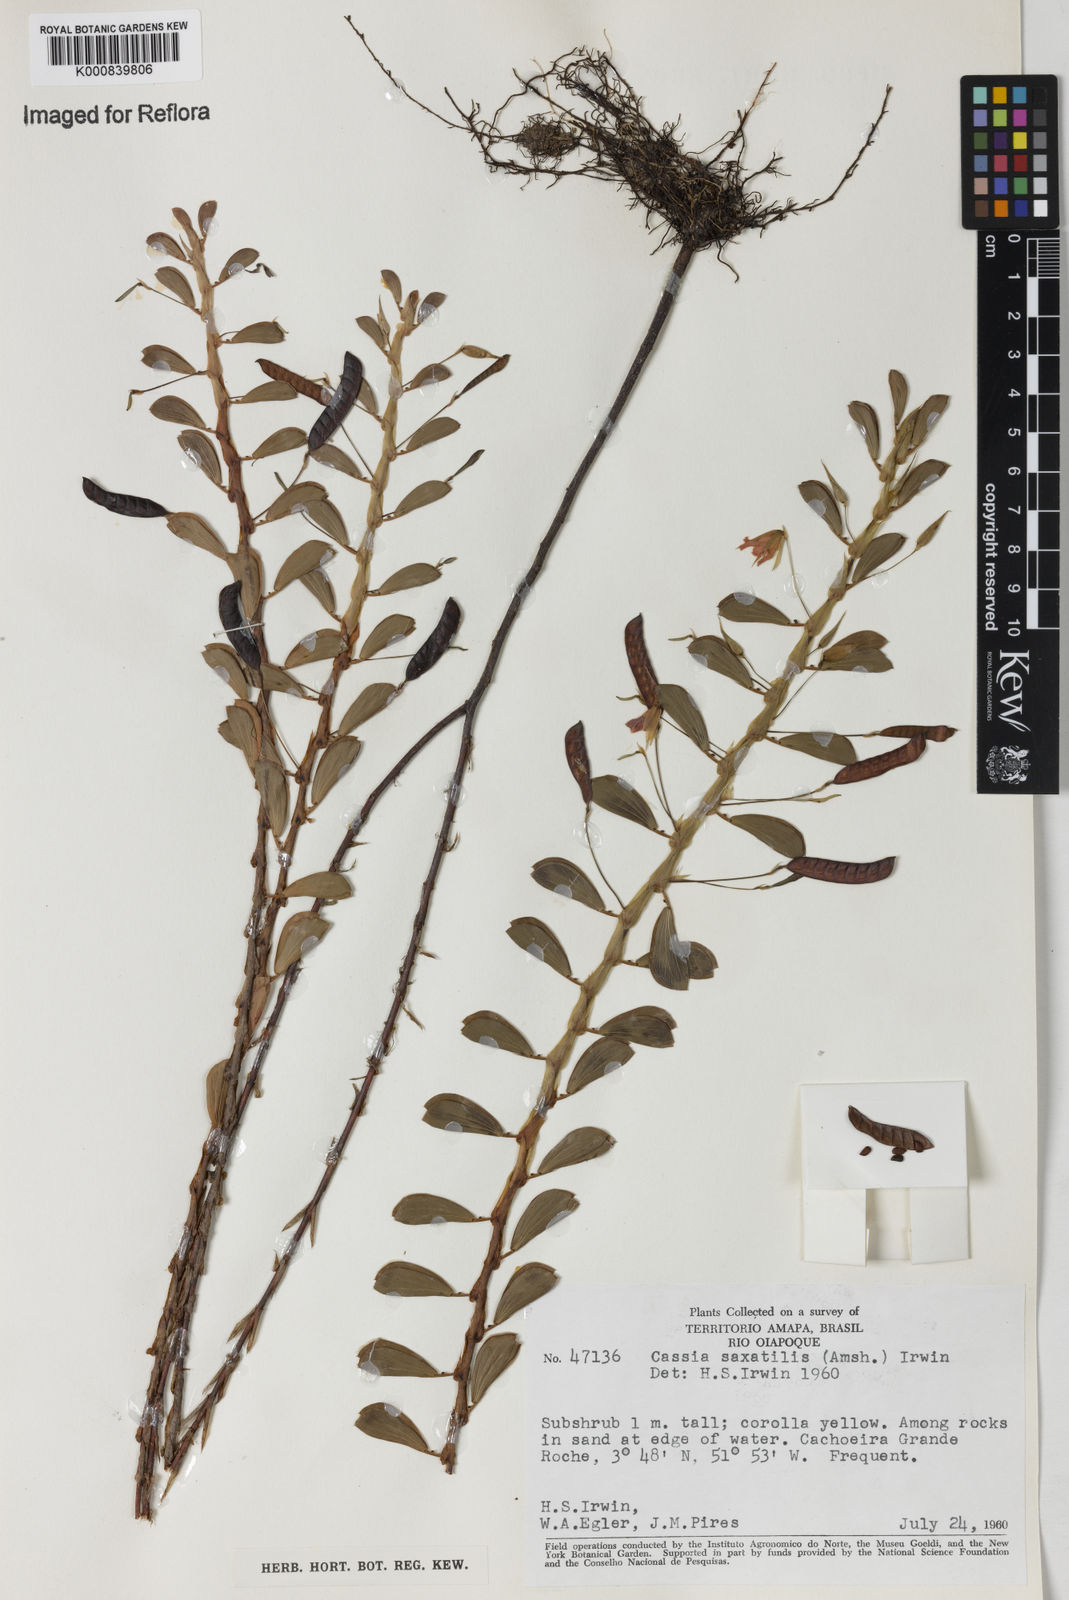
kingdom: Plantae
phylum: Tracheophyta
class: Magnoliopsida
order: Fabales
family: Fabaceae
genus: Chamaecrista
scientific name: Chamaecrista desvauxii
